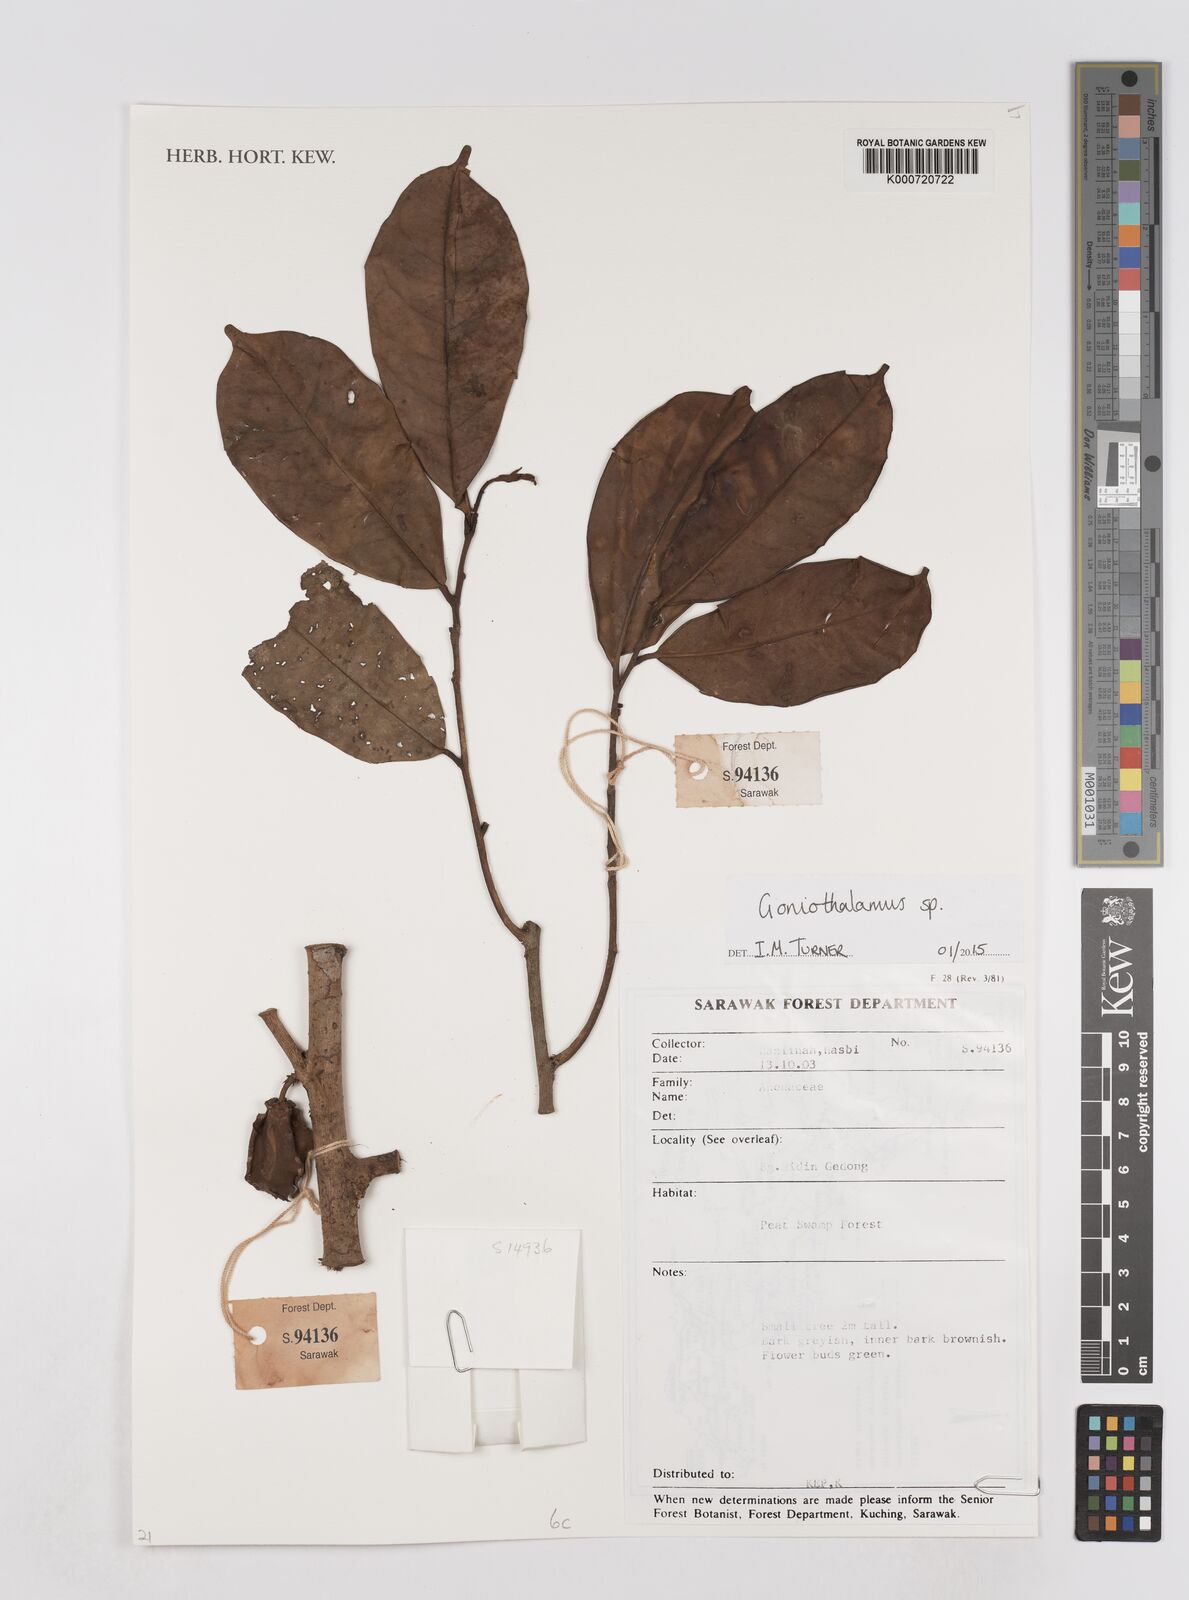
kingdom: Plantae
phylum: Tracheophyta
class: Magnoliopsida
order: Magnoliales
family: Annonaceae
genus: Goniothalamus
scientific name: Goniothalamus
